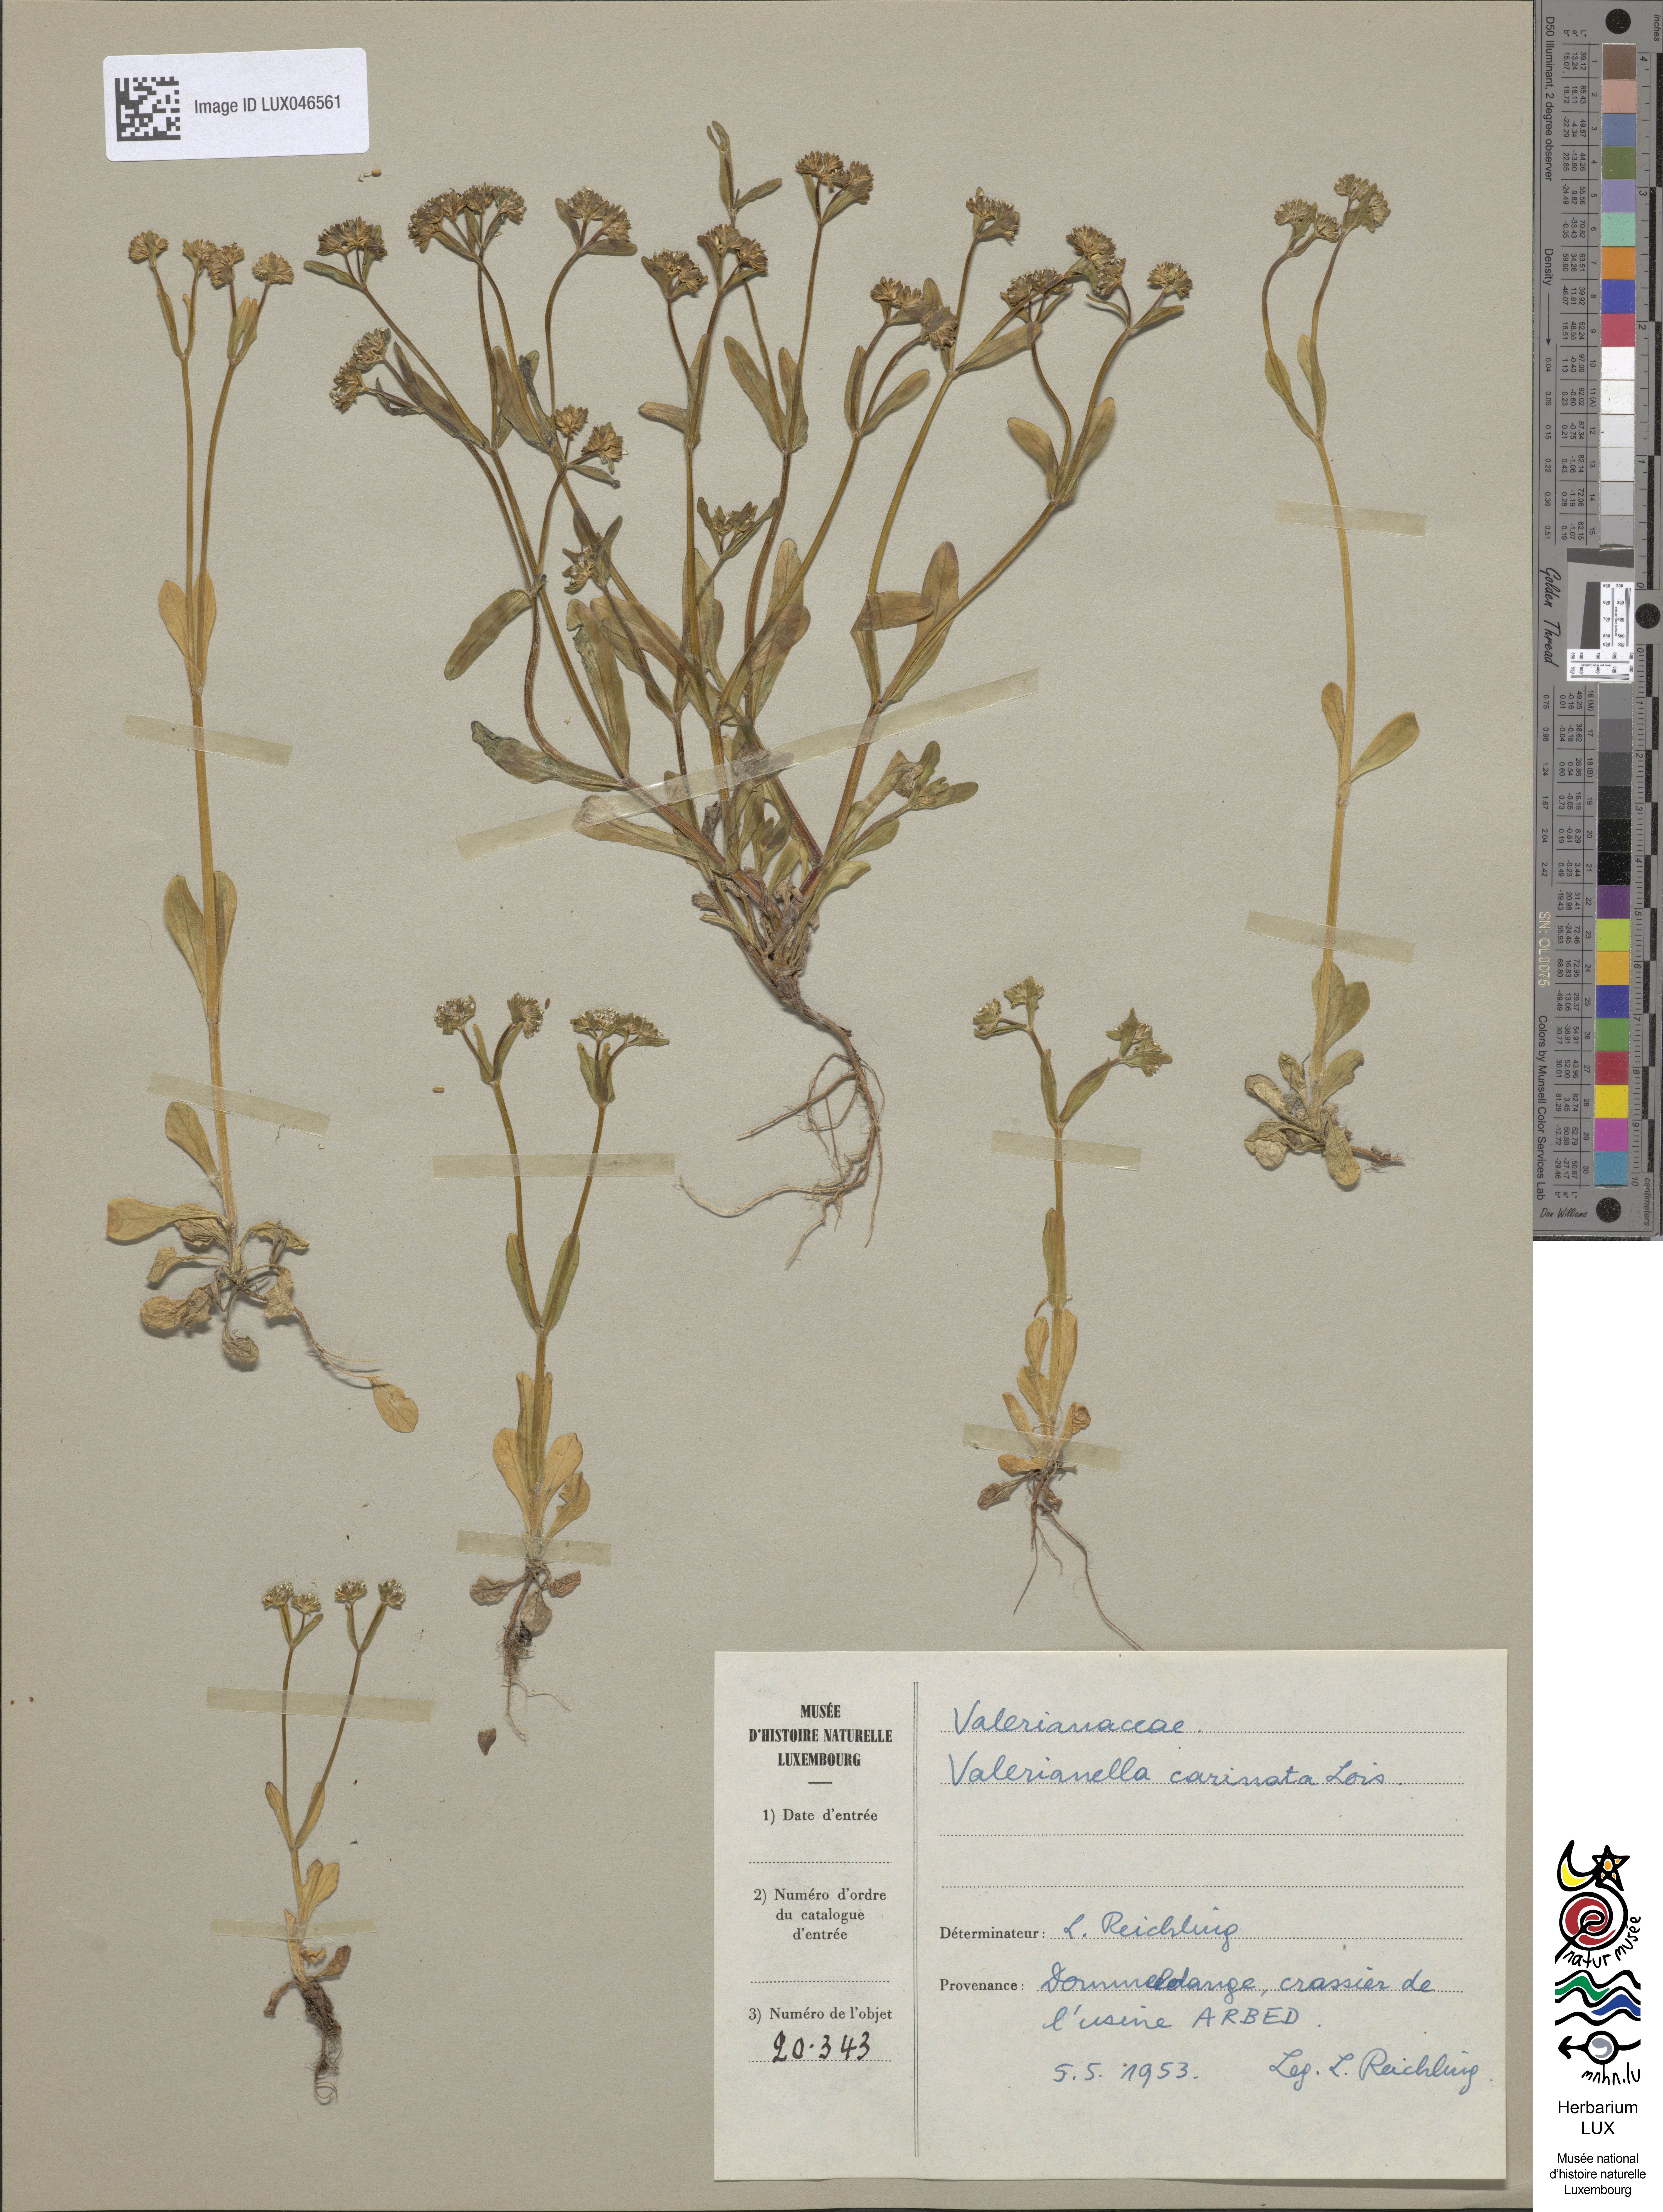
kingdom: Plantae
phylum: Tracheophyta
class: Magnoliopsida
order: Dipsacales
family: Caprifoliaceae
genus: Valerianella
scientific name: Valerianella carinata
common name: Keeled-fruited cornsalad
